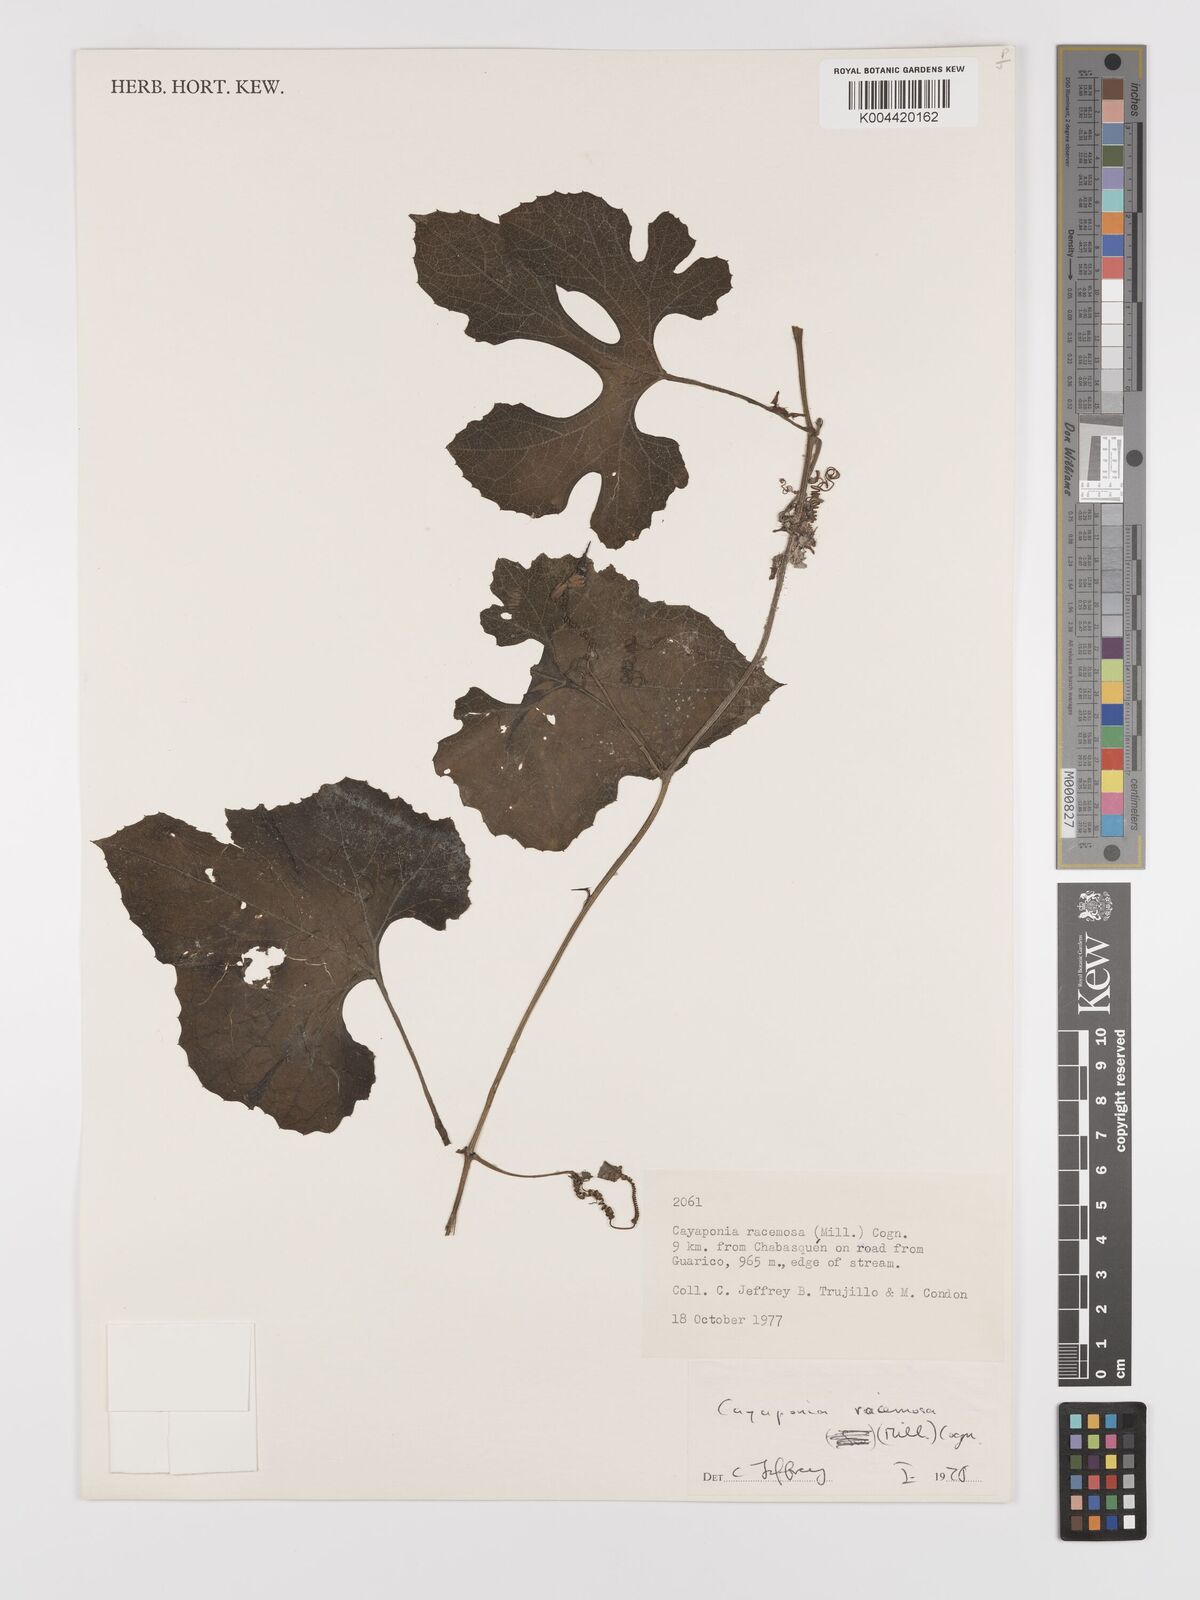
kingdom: Plantae
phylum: Tracheophyta
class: Magnoliopsida
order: Cucurbitales
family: Cucurbitaceae
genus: Cayaponia
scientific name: Cayaponia racemosa
